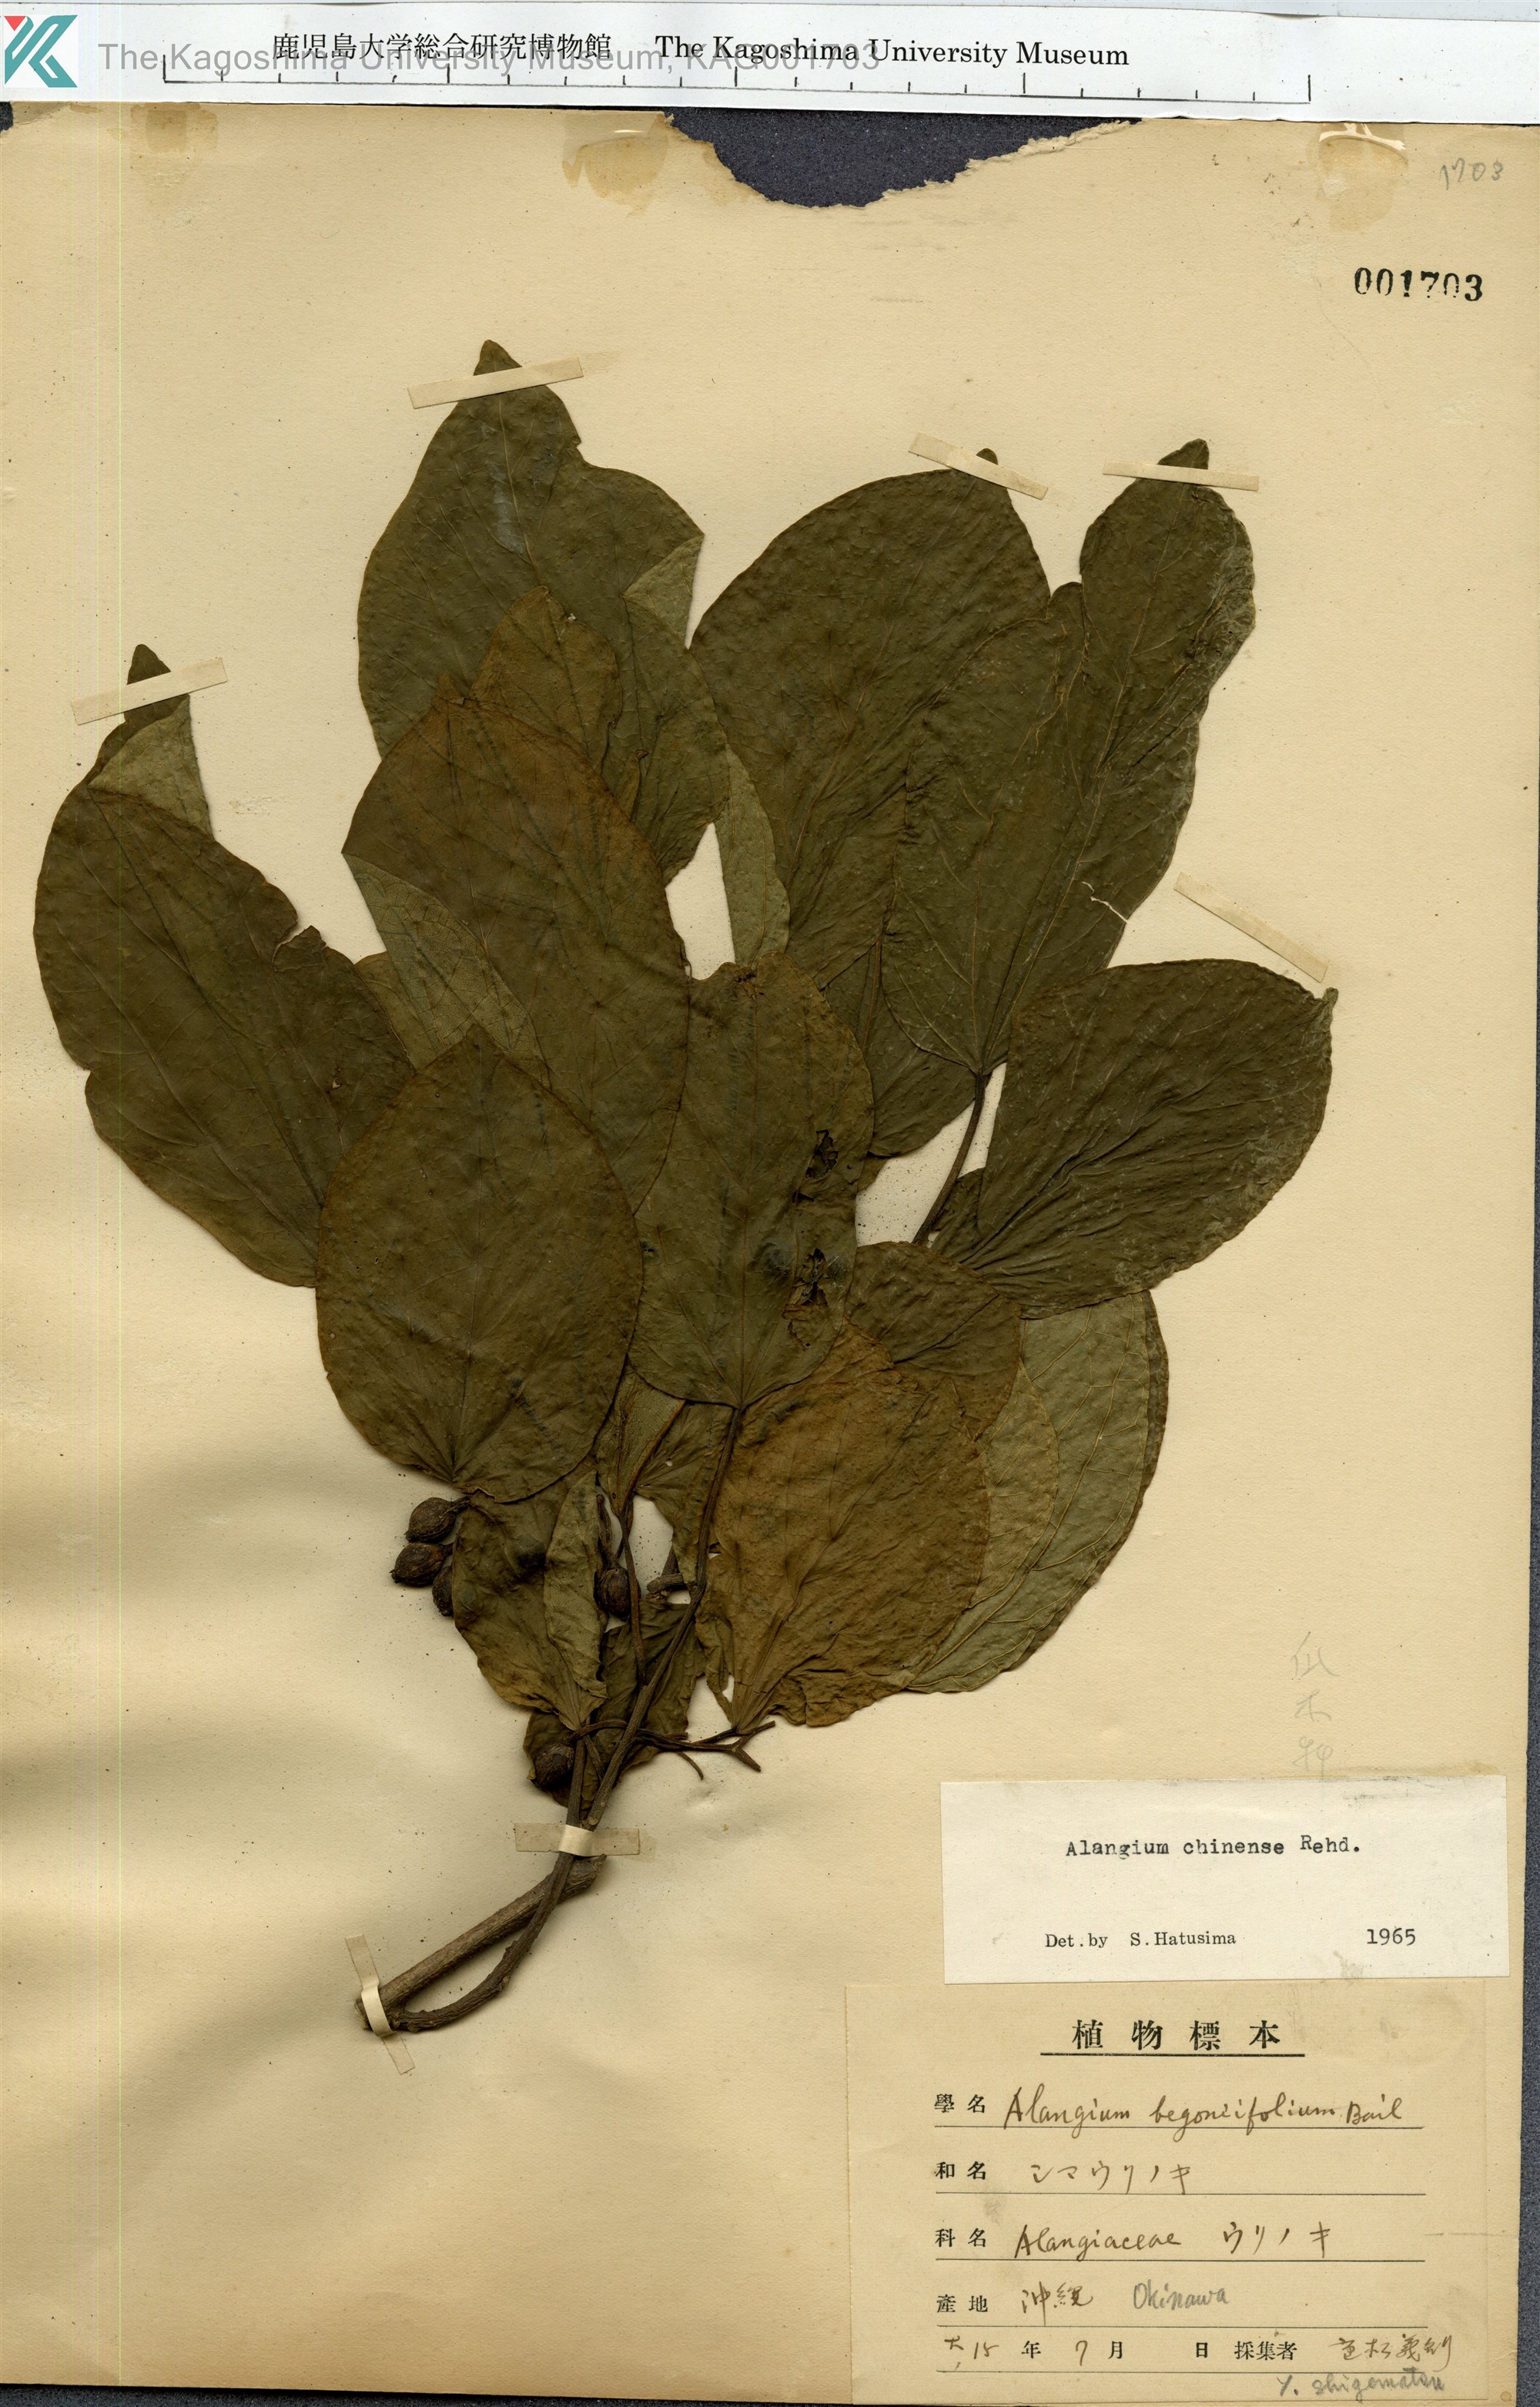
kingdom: Plantae
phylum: Tracheophyta
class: Magnoliopsida
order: Cornales
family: Cornaceae
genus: Alangium
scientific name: Alangium chinense
